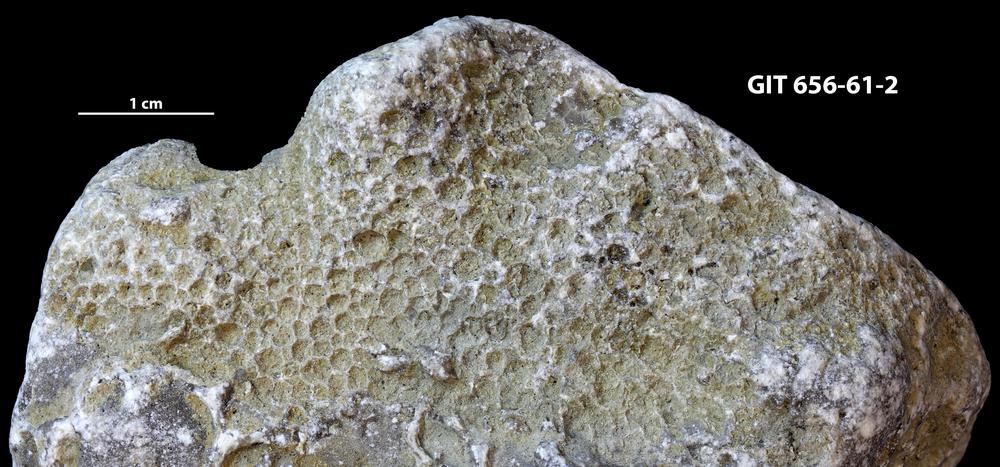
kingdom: Animalia
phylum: Cnidaria
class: Anthozoa
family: Favositidae
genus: Favosites
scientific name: Favosites
